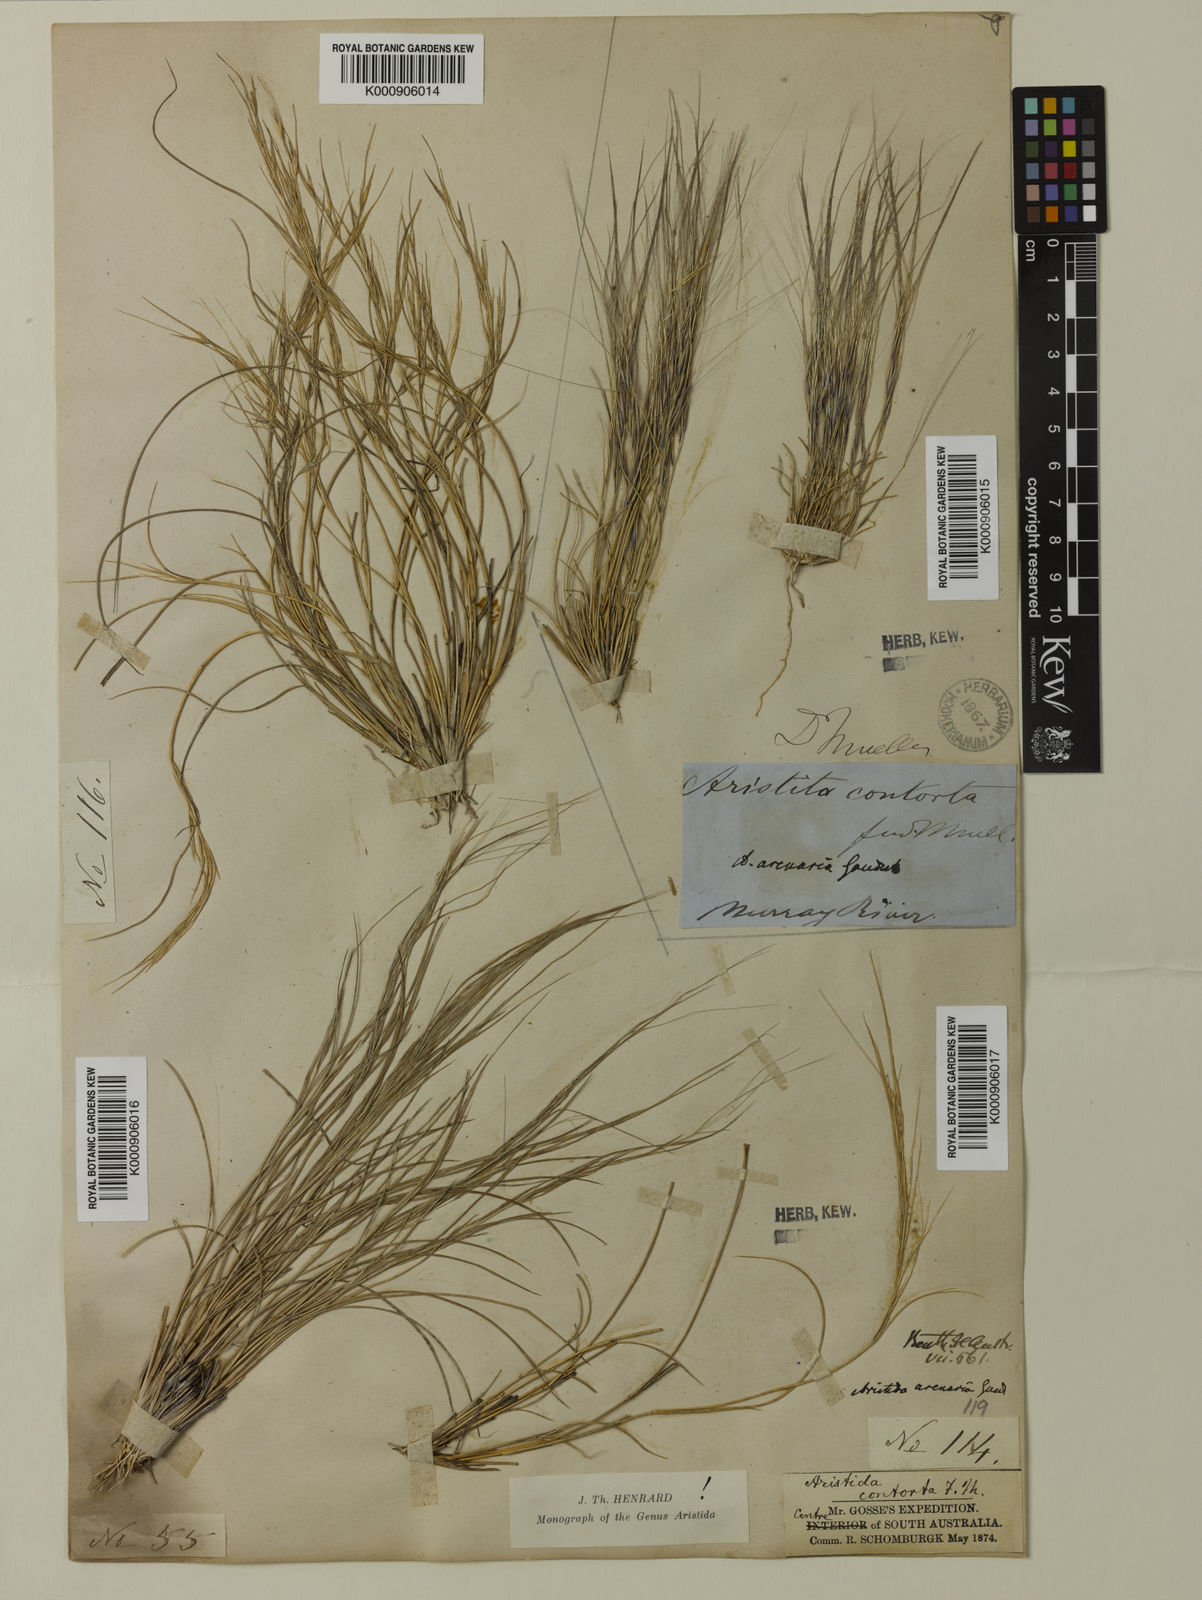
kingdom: Plantae
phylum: Tracheophyta
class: Liliopsida
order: Poales
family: Poaceae
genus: Aristida
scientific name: Aristida contorta
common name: Bunch kerosene grass
